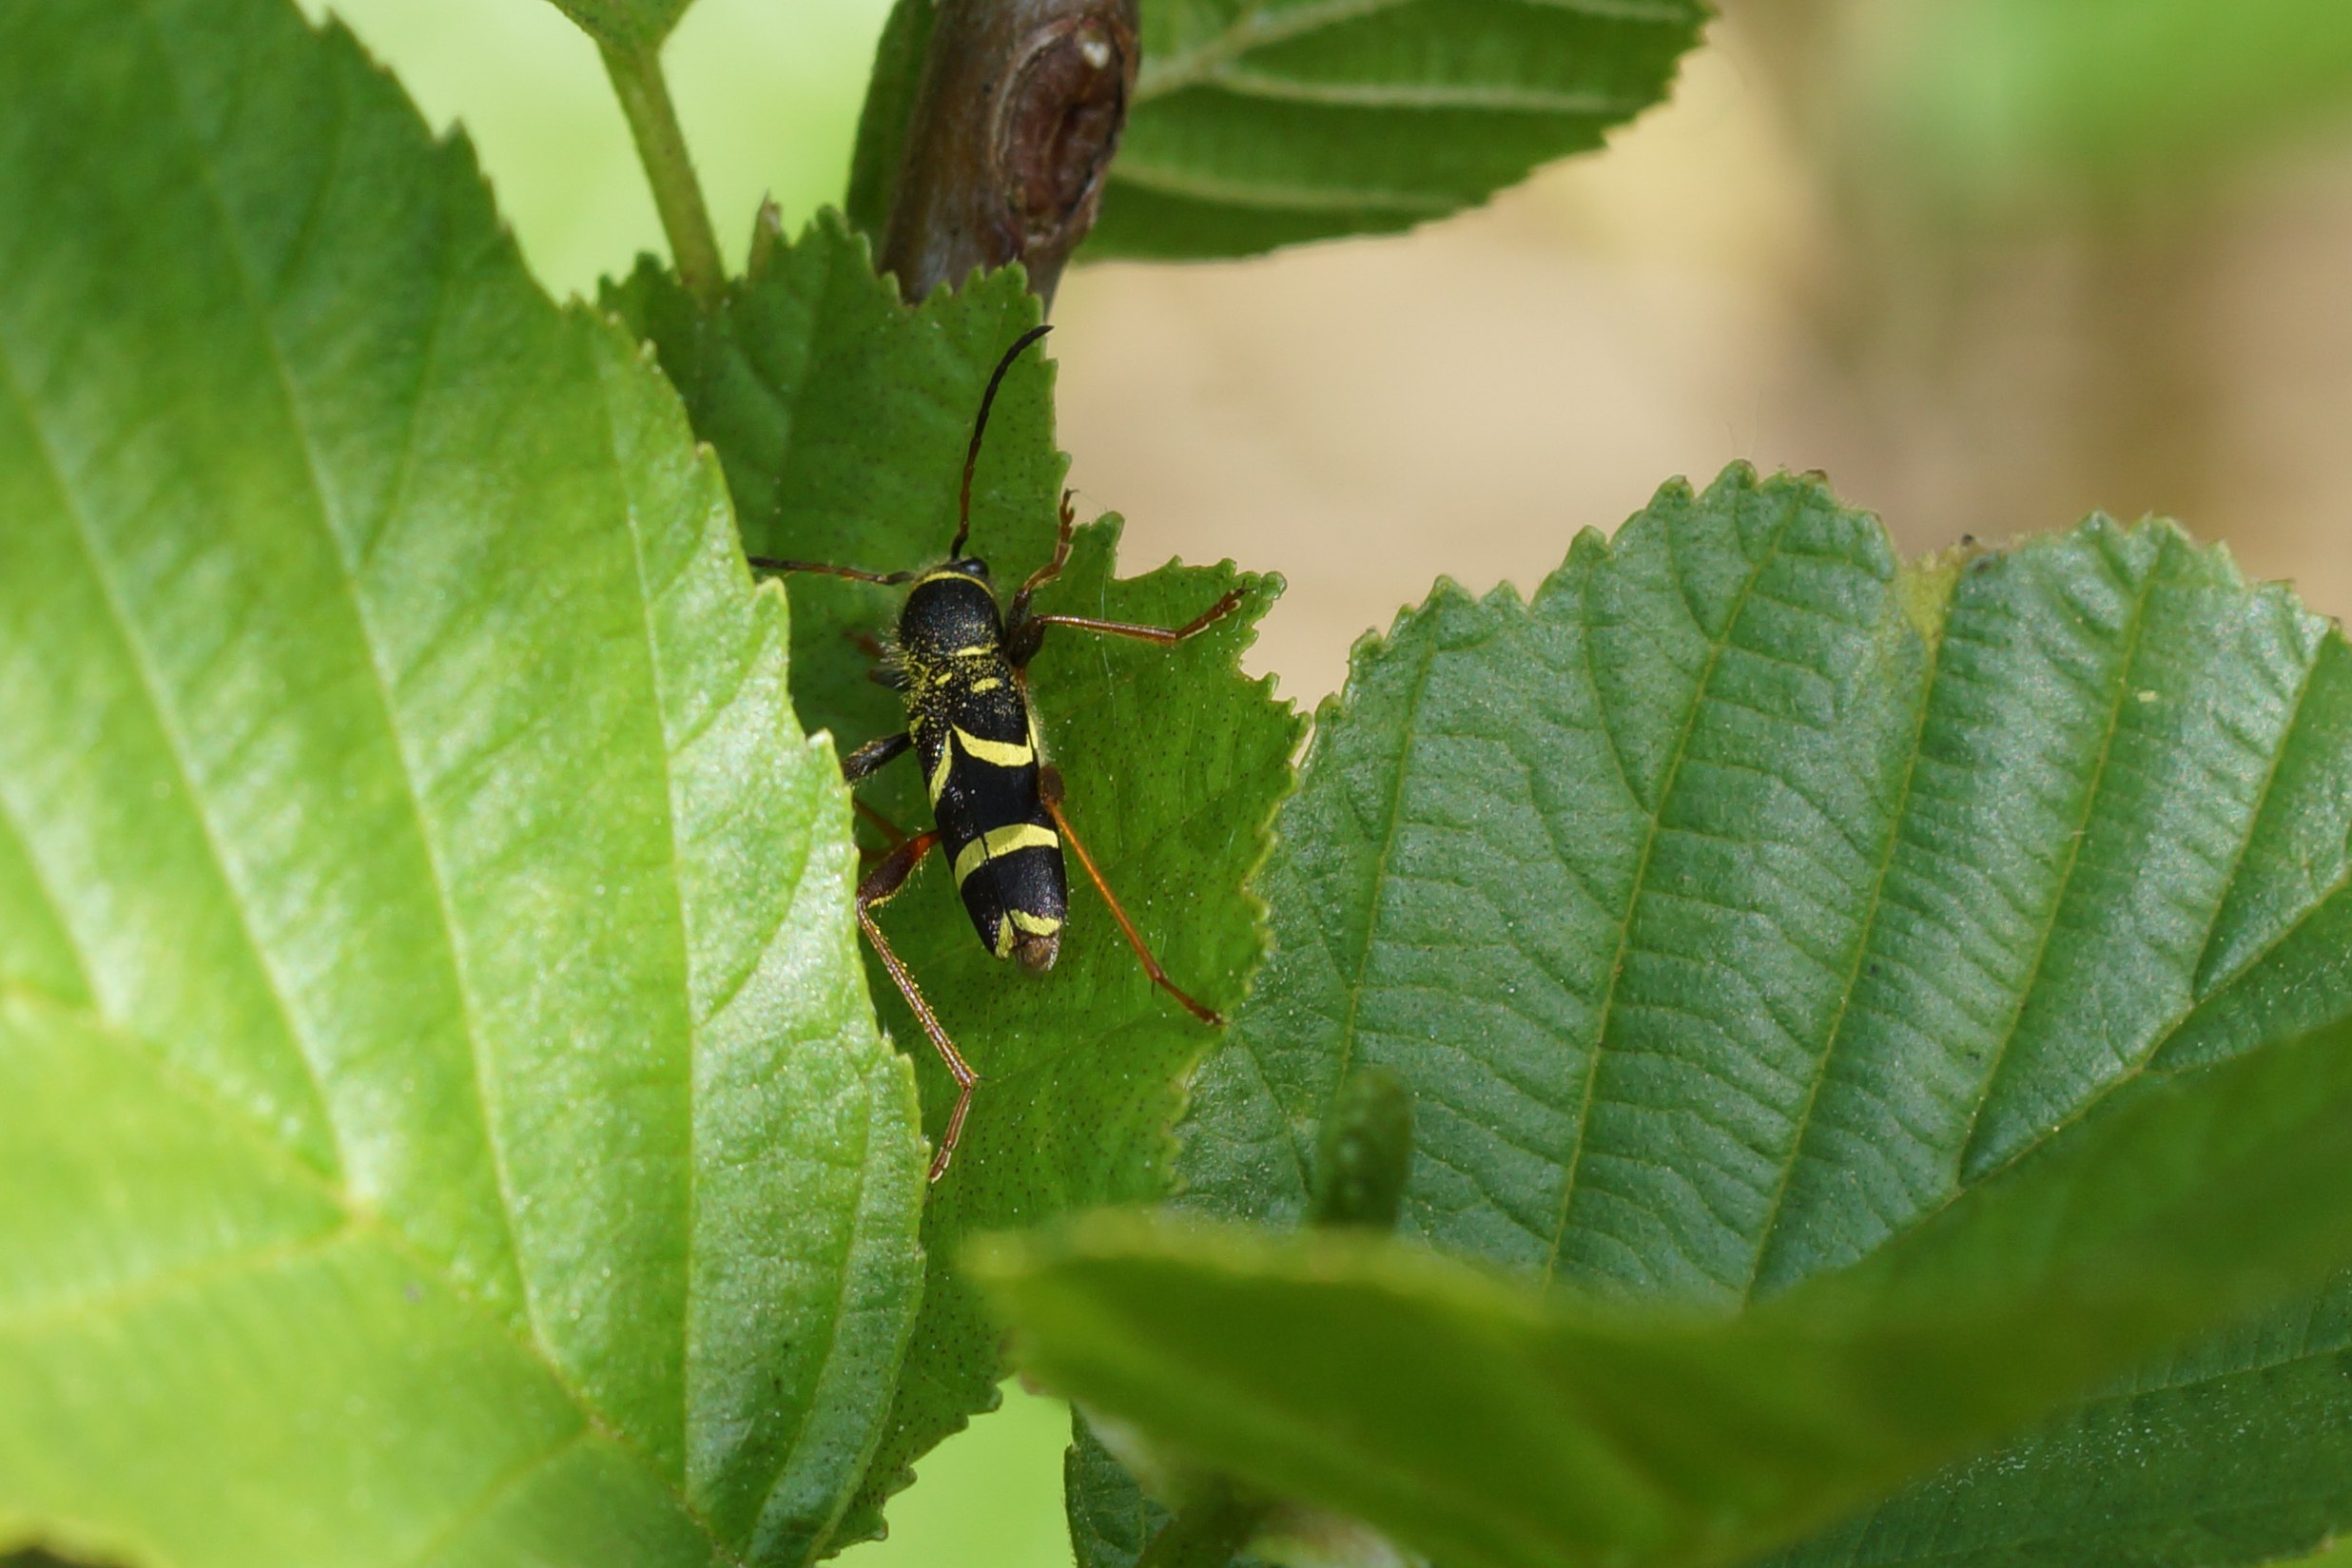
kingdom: Animalia
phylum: Arthropoda
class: Insecta
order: Coleoptera
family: Cerambycidae
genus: Clytus
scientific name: Clytus arietis
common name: Lille hvepsebuk
